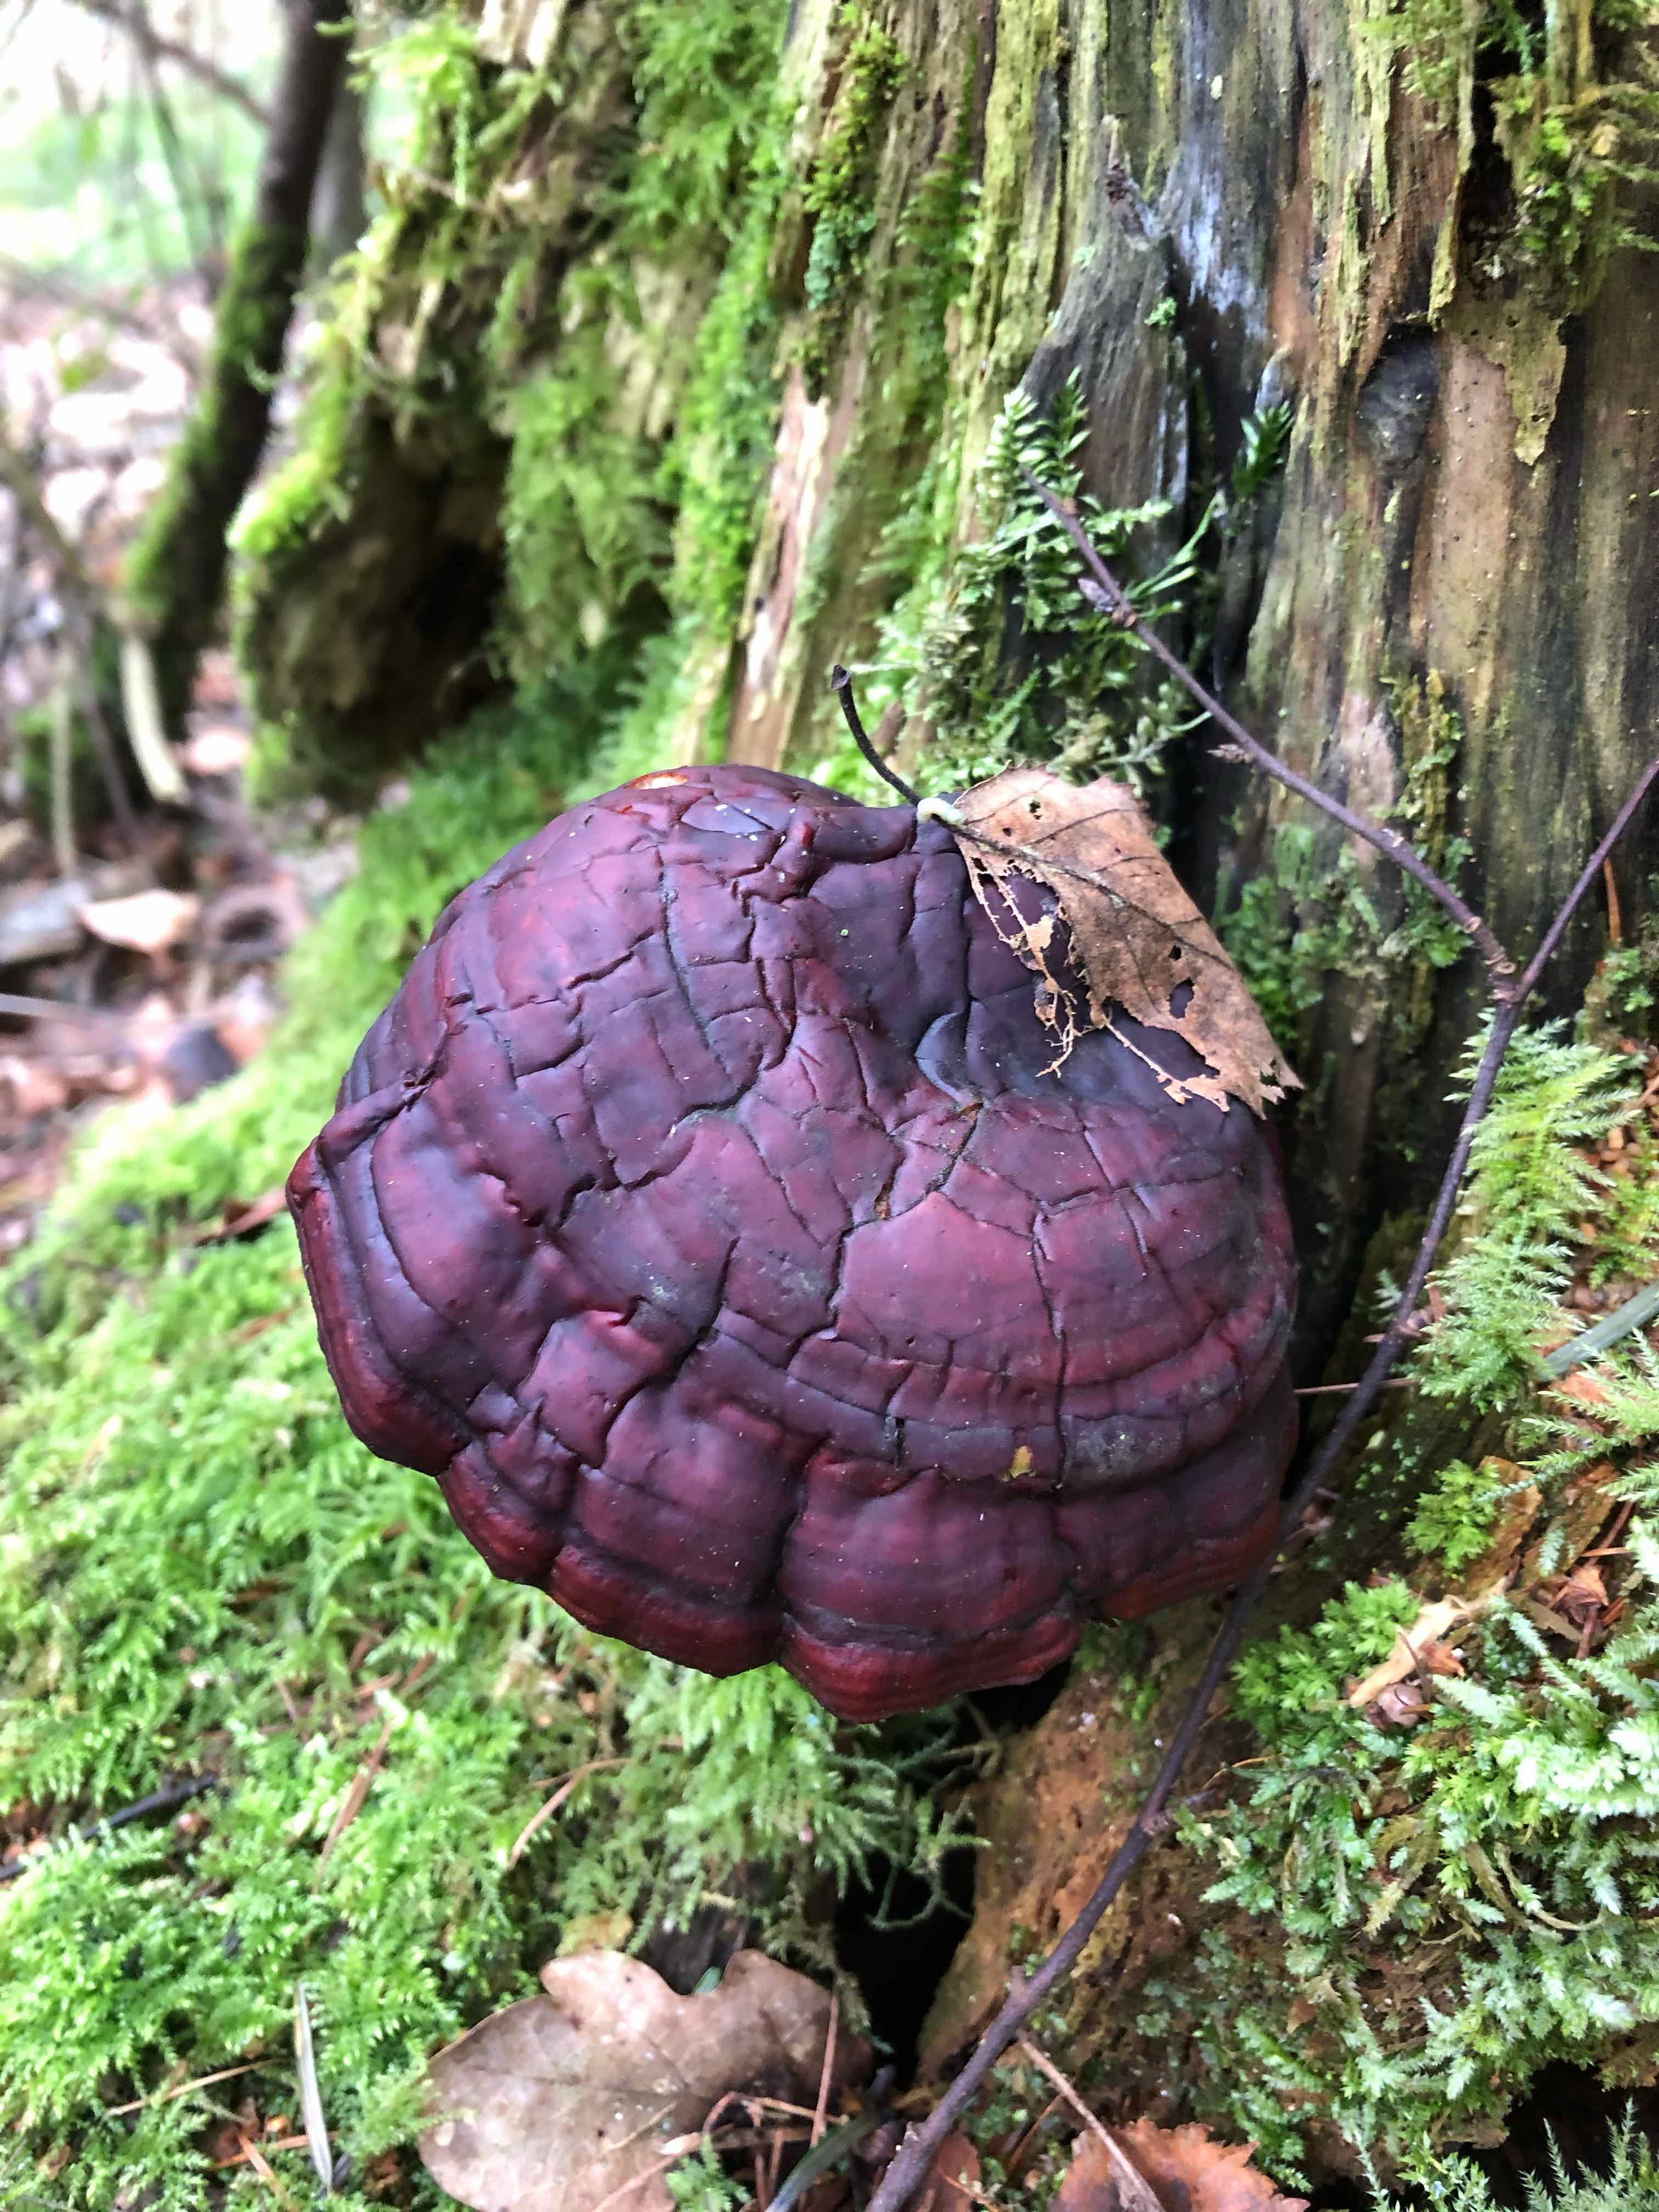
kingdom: Fungi
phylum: Basidiomycota
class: Agaricomycetes
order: Polyporales
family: Polyporaceae
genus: Ganoderma
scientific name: Ganoderma lucidum
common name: skinnende lakporesvamp
